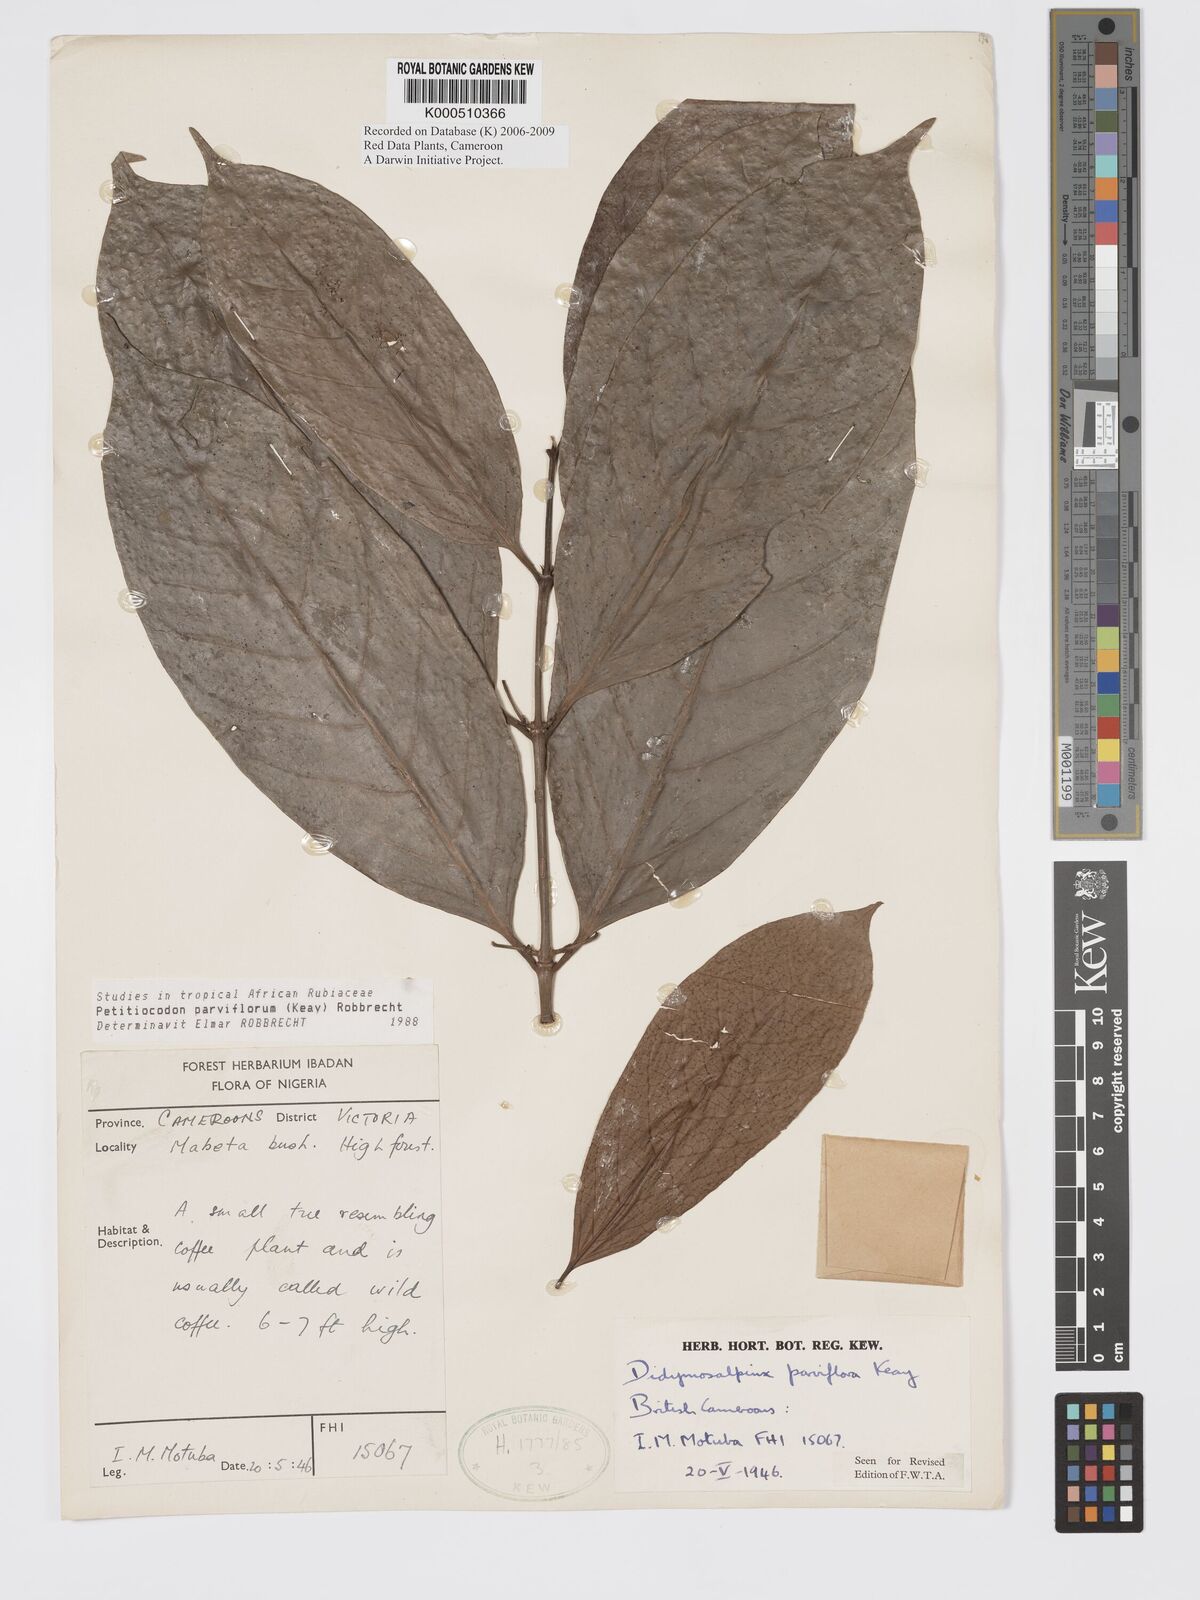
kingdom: Plantae
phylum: Tracheophyta
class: Magnoliopsida
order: Gentianales
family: Rubiaceae
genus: Petitiocodon
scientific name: Petitiocodon parviflorum
